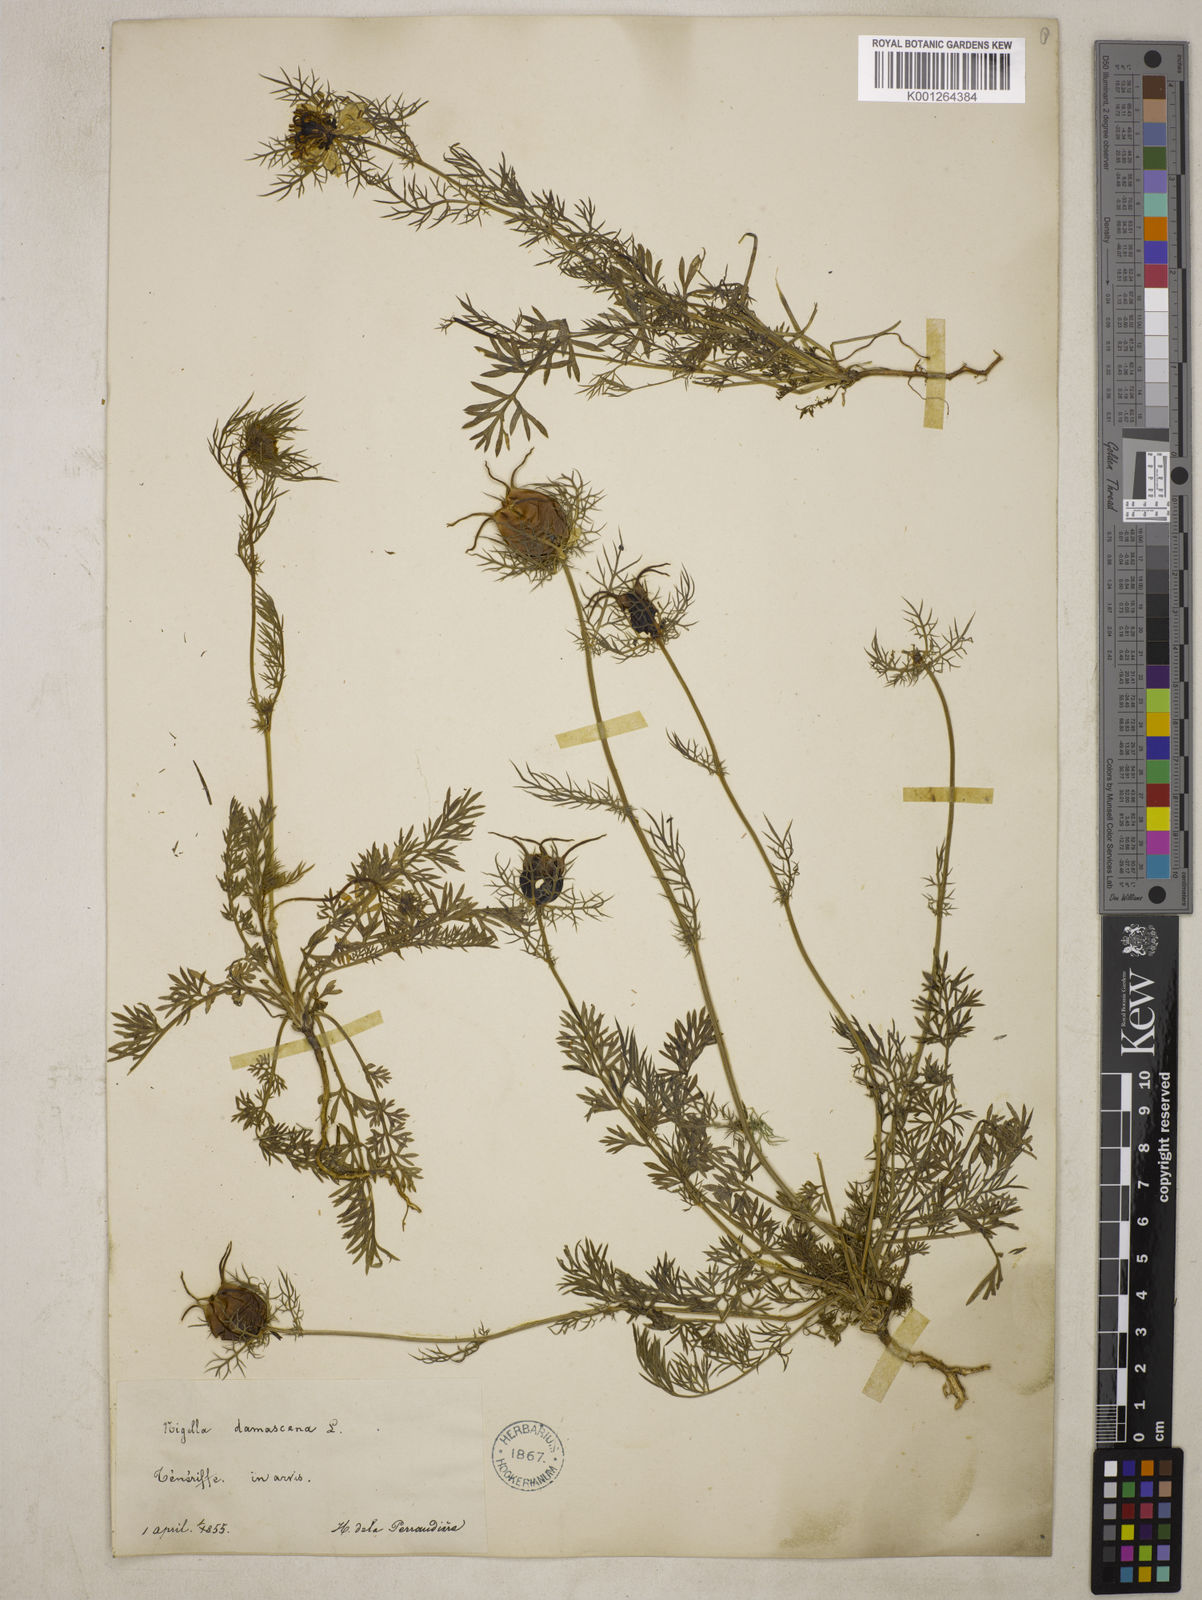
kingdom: Plantae
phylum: Tracheophyta
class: Magnoliopsida
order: Ranunculales
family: Ranunculaceae
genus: Nigella
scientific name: Nigella damascena
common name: Love-in-a-mist
